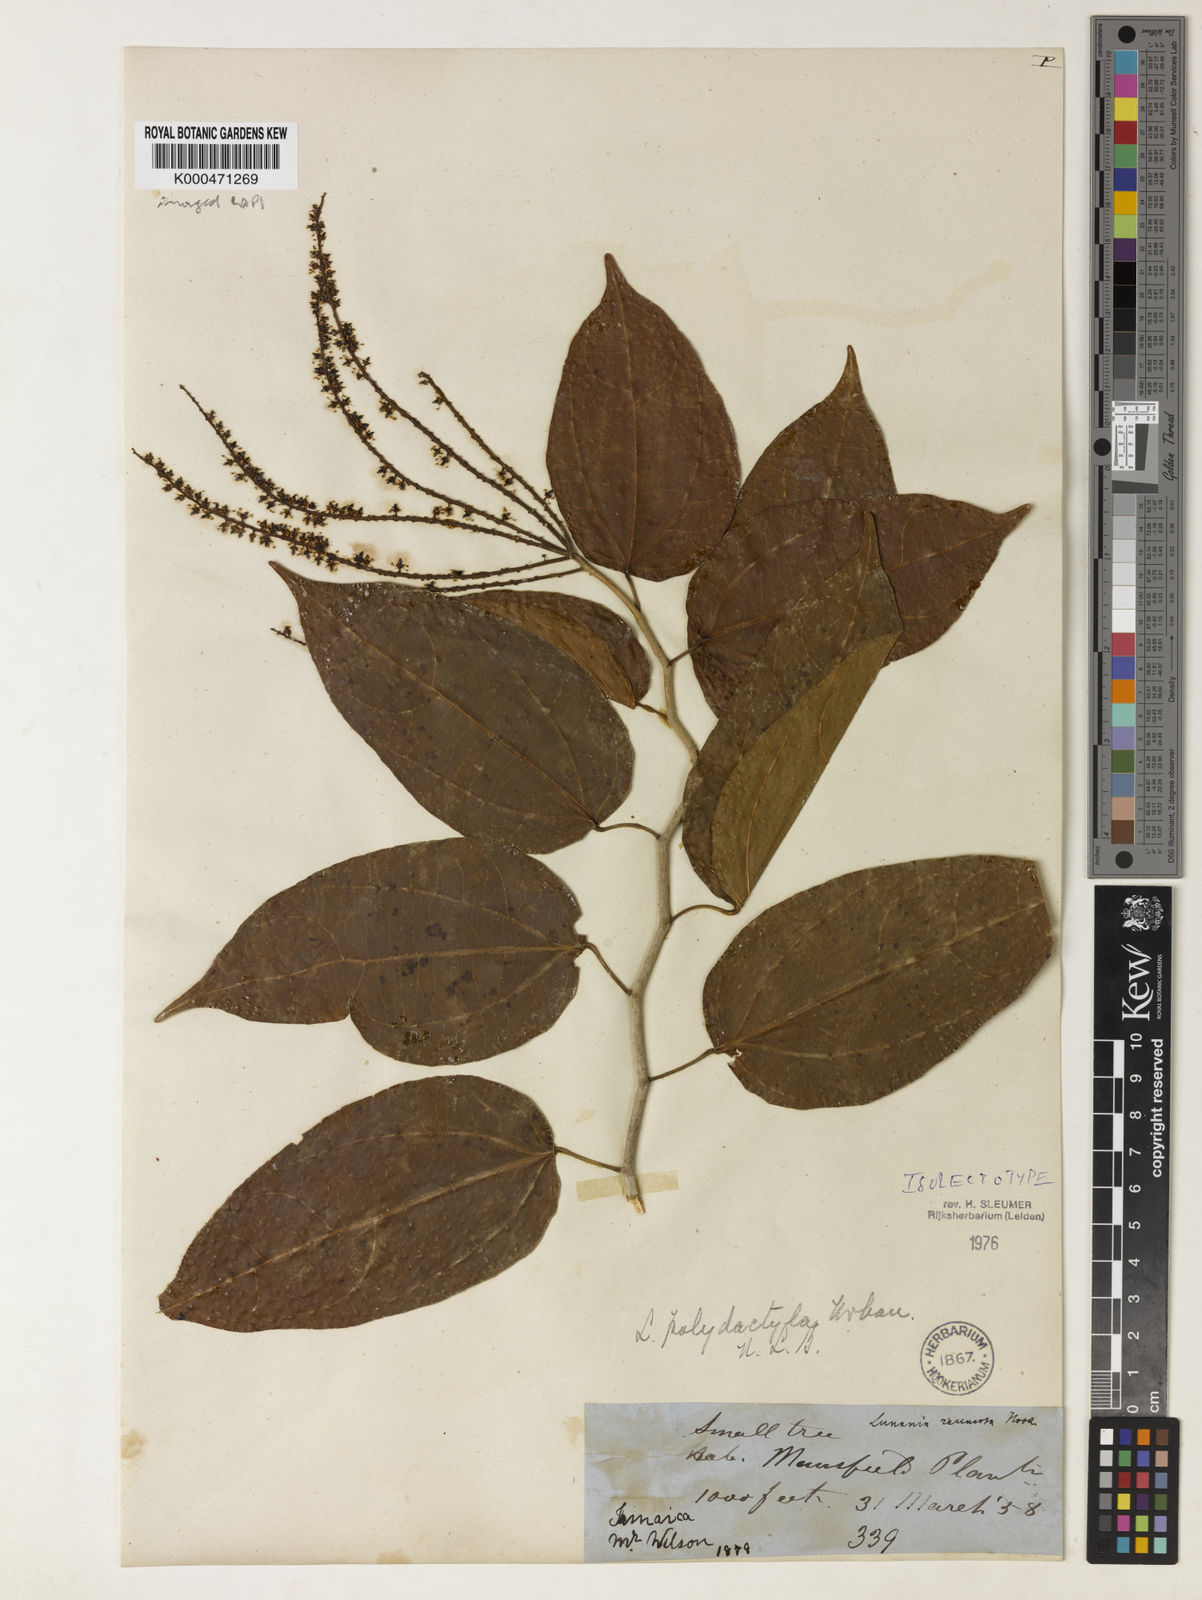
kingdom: Plantae
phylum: Tracheophyta
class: Magnoliopsida
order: Malpighiales
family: Salicaceae
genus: Lunania
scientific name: Lunania polydactyla
